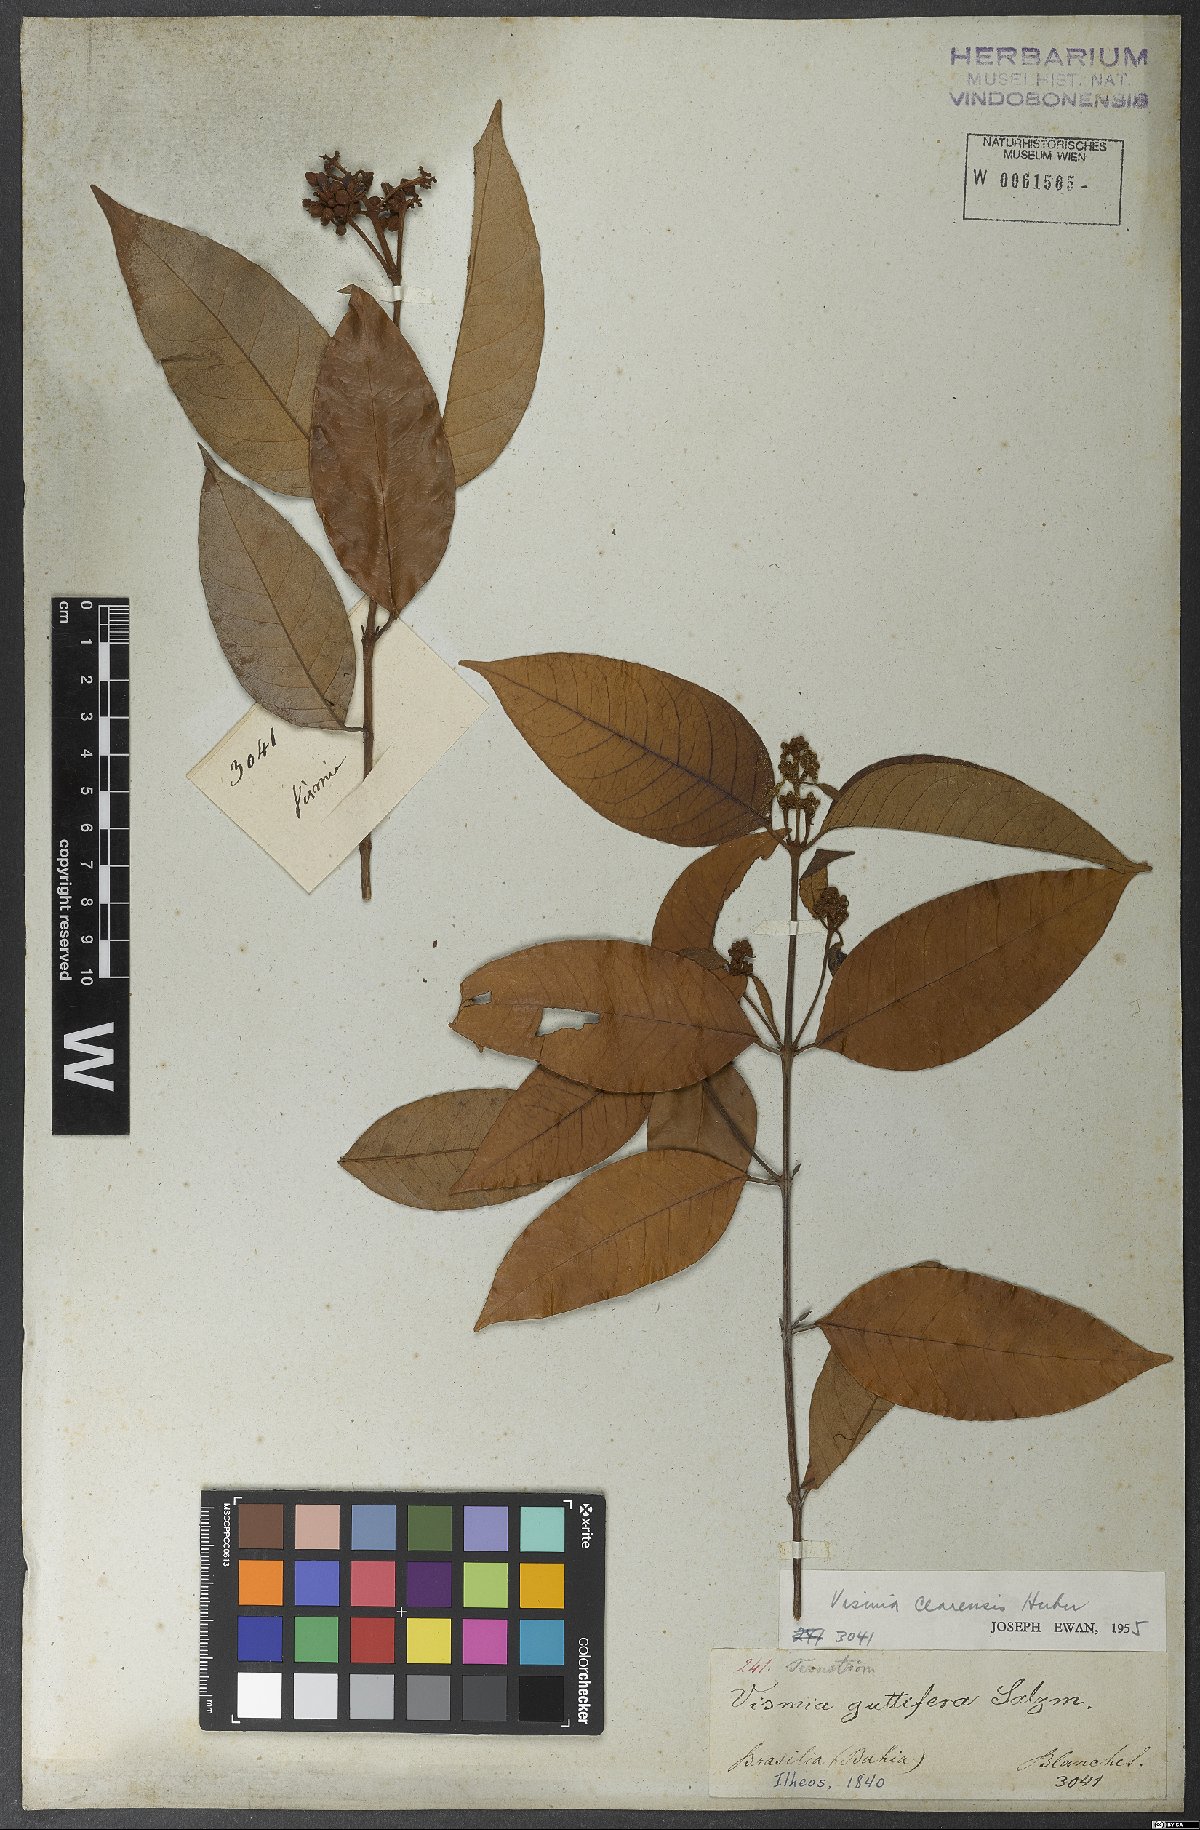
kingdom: Plantae
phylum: Tracheophyta
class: Magnoliopsida
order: Malpighiales
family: Hypericaceae
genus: Vismia
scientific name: Vismia guianensis
